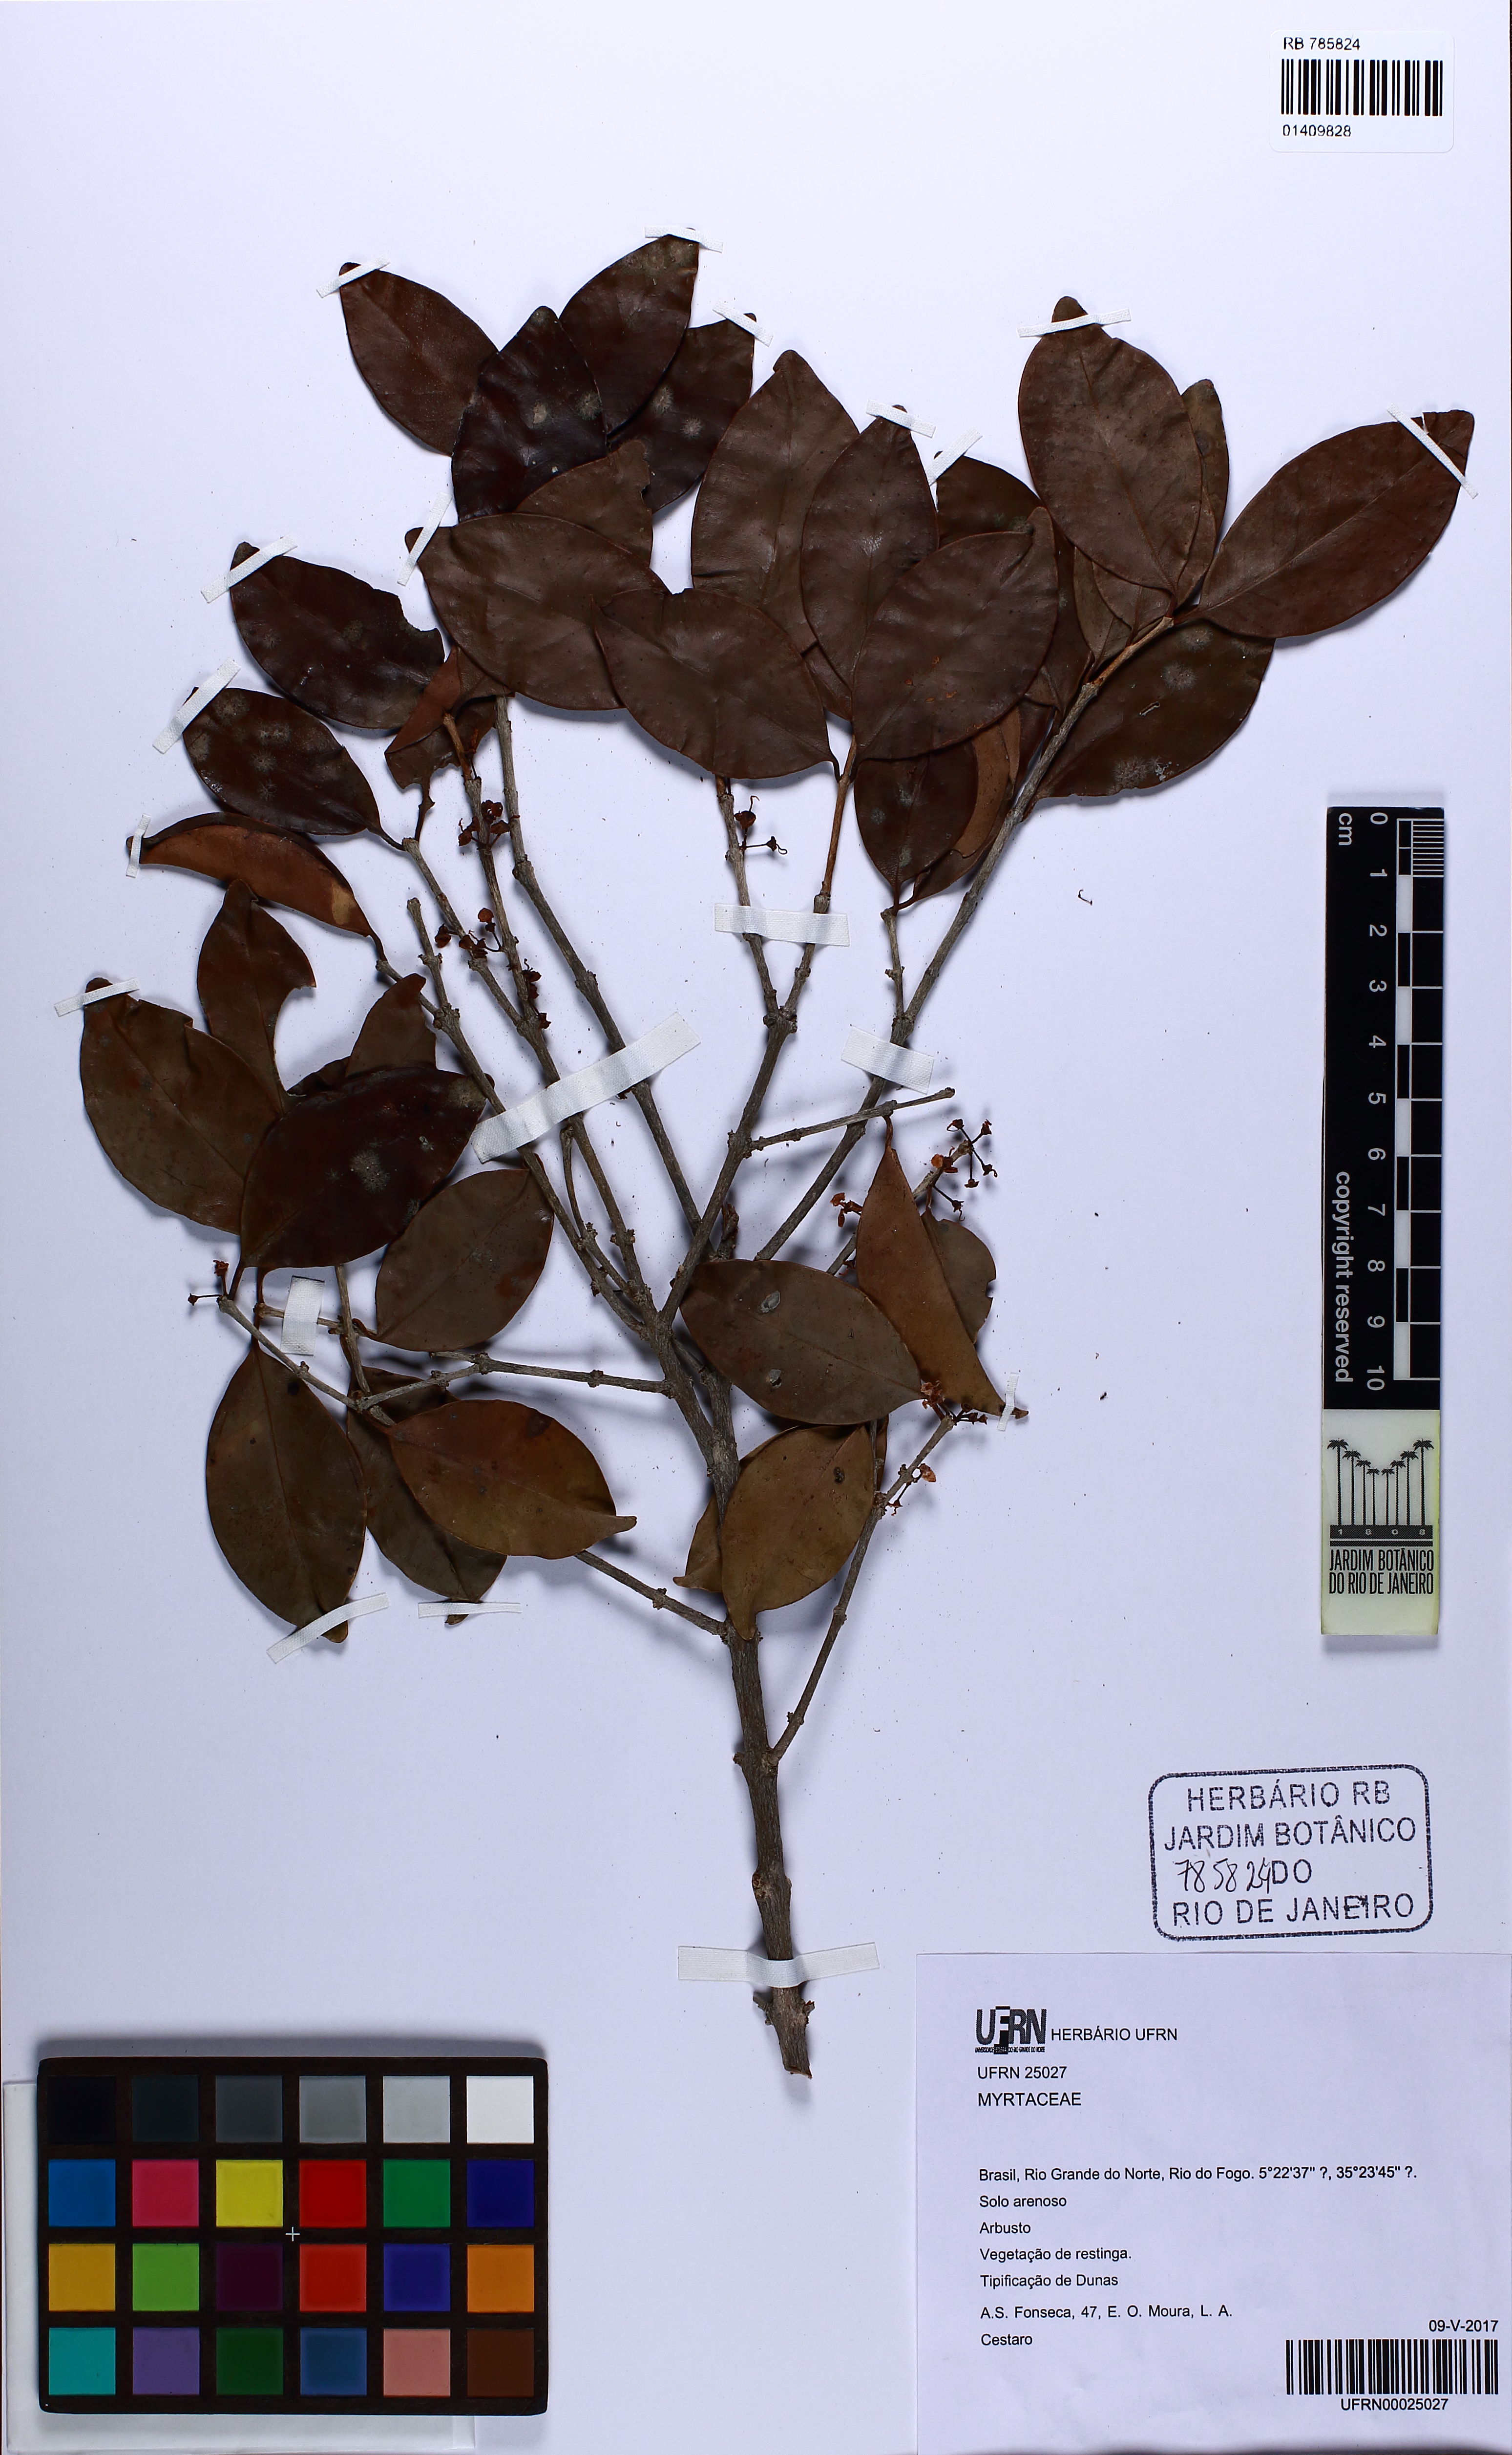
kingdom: Plantae
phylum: Tracheophyta
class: Magnoliopsida
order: Myrtales
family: Myrtaceae
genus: Eugenia
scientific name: Eugenia astringens
